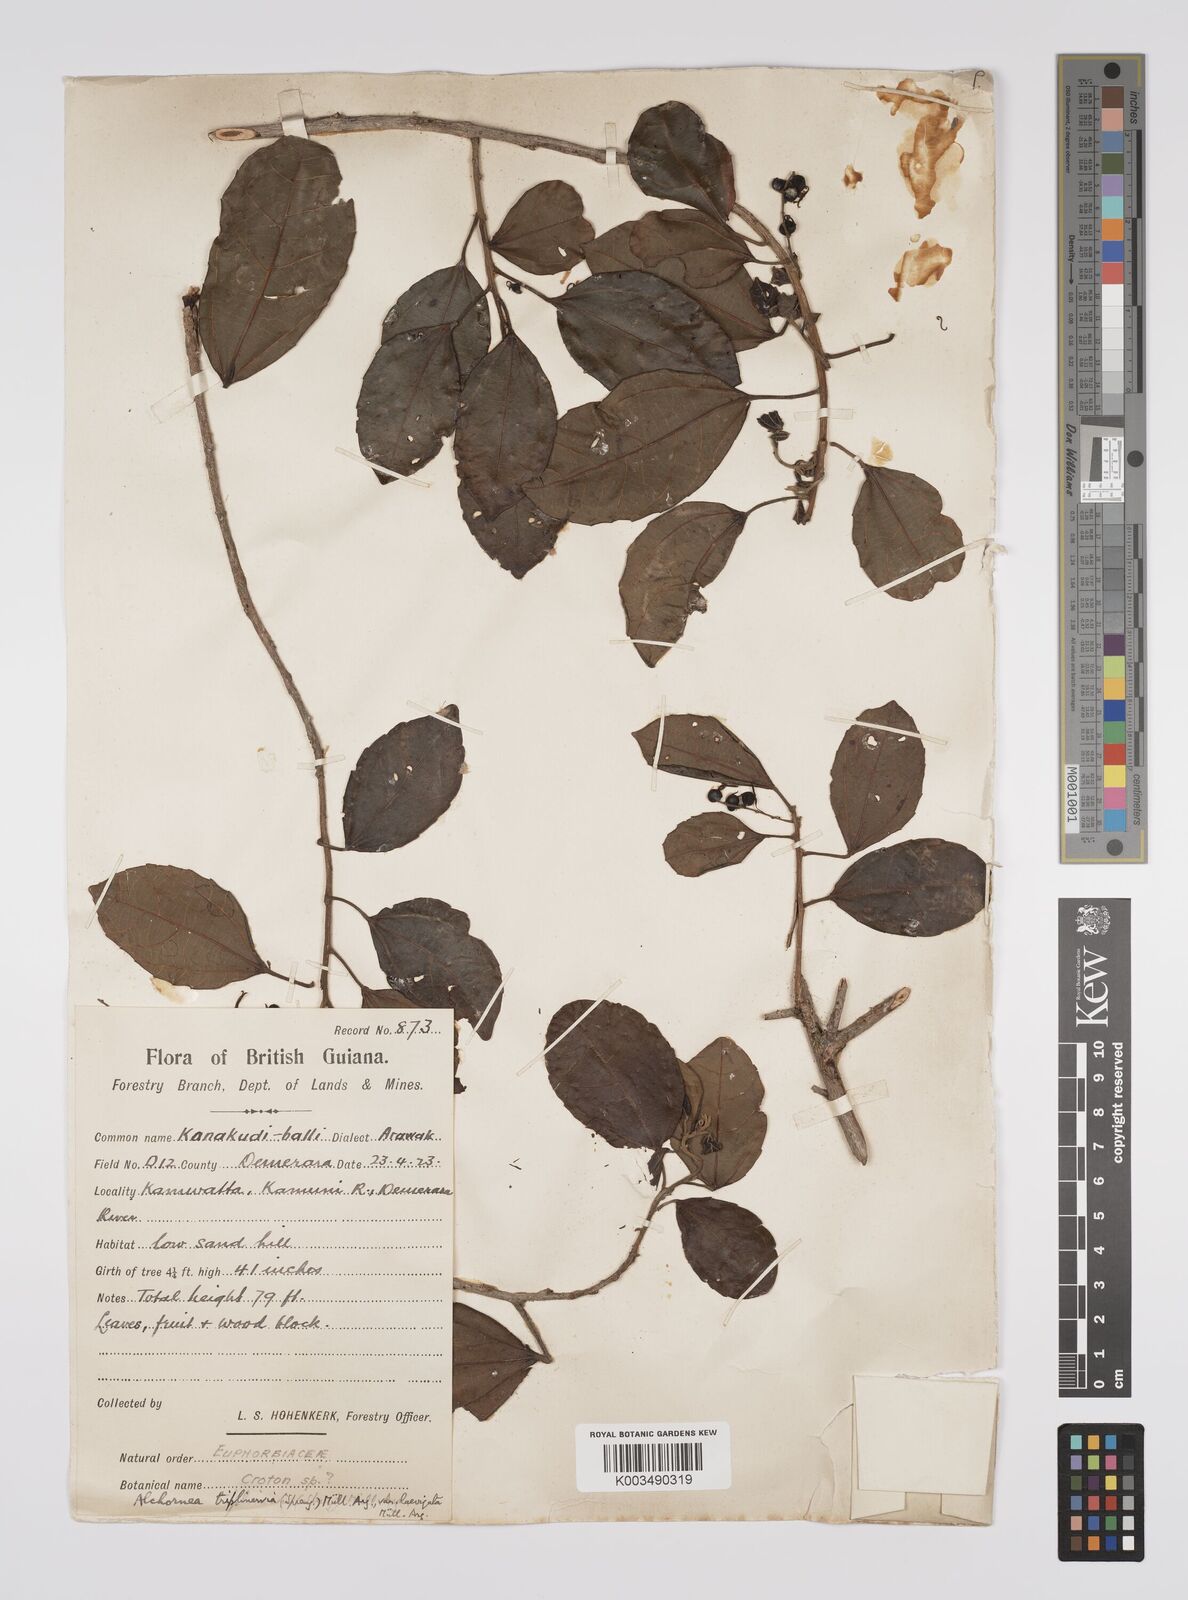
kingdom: Plantae
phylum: Tracheophyta
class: Magnoliopsida
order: Malpighiales
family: Euphorbiaceae
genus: Alchornea
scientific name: Alchornea triplinervia
